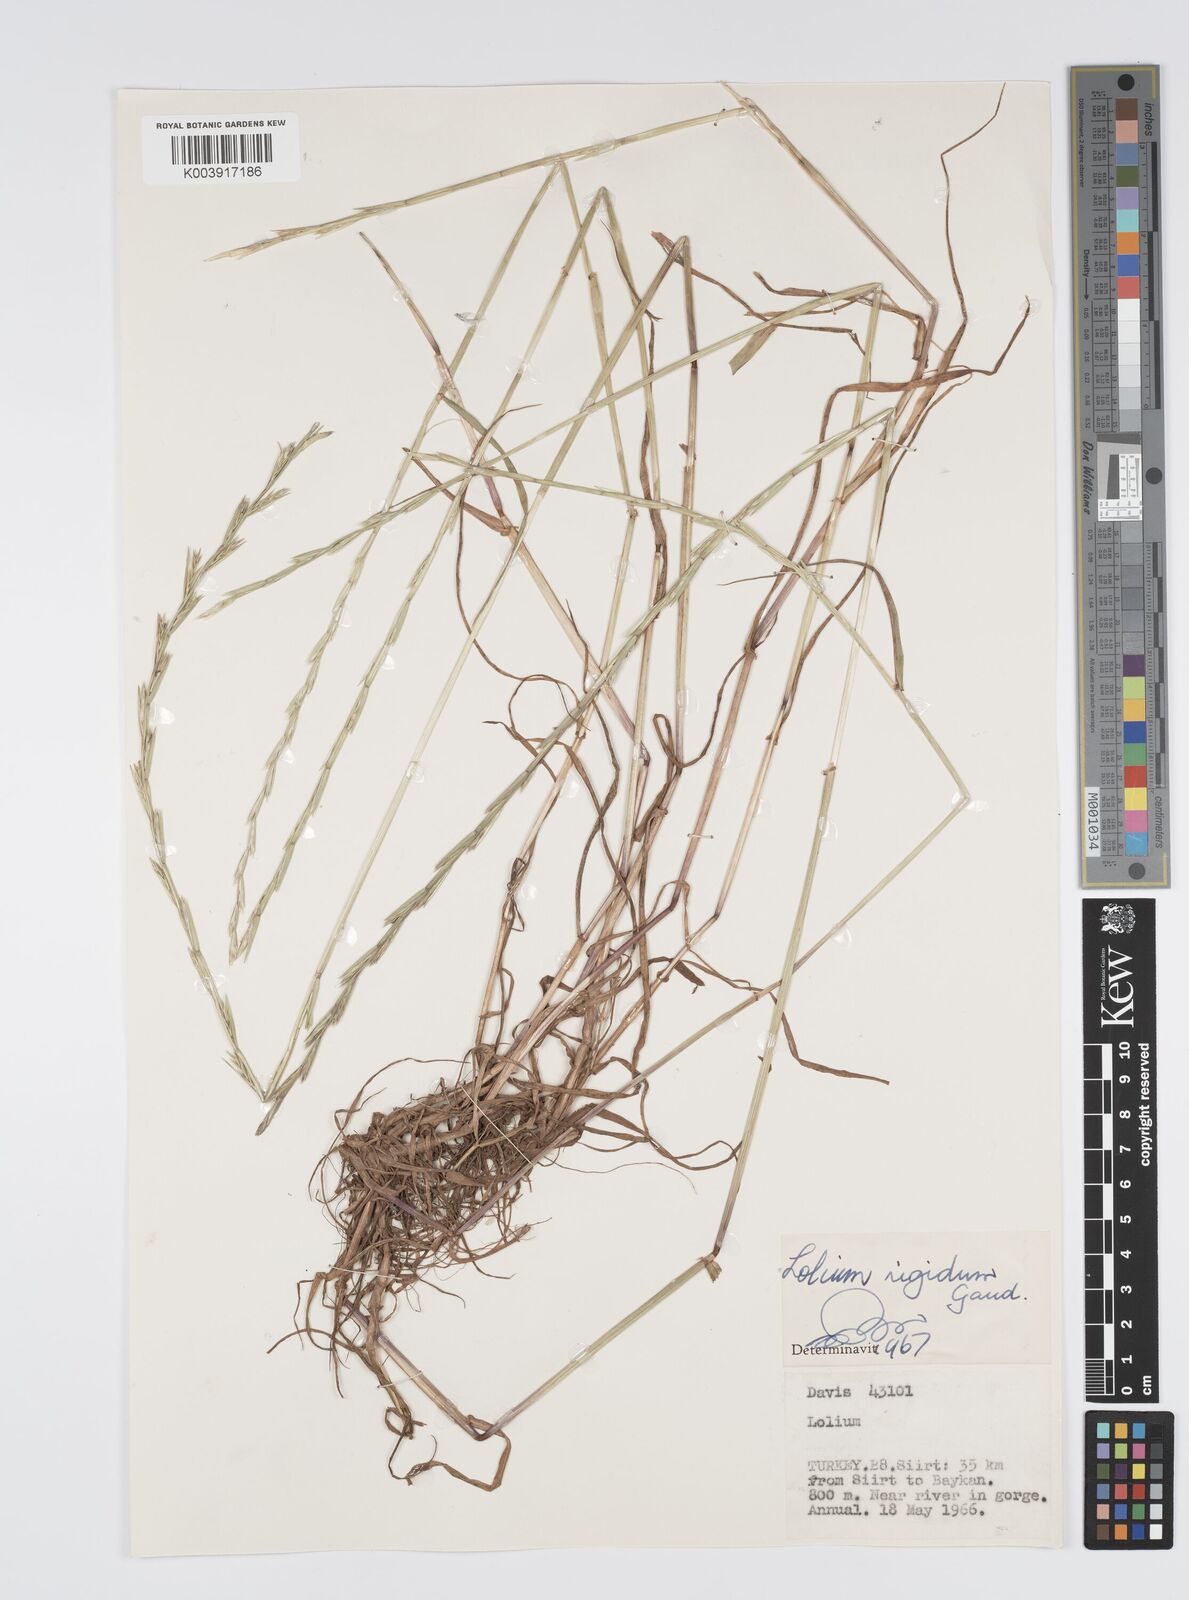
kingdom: Plantae
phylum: Tracheophyta
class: Liliopsida
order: Poales
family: Poaceae
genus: Lolium
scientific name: Lolium rigidum
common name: Wimmera ryegrass
